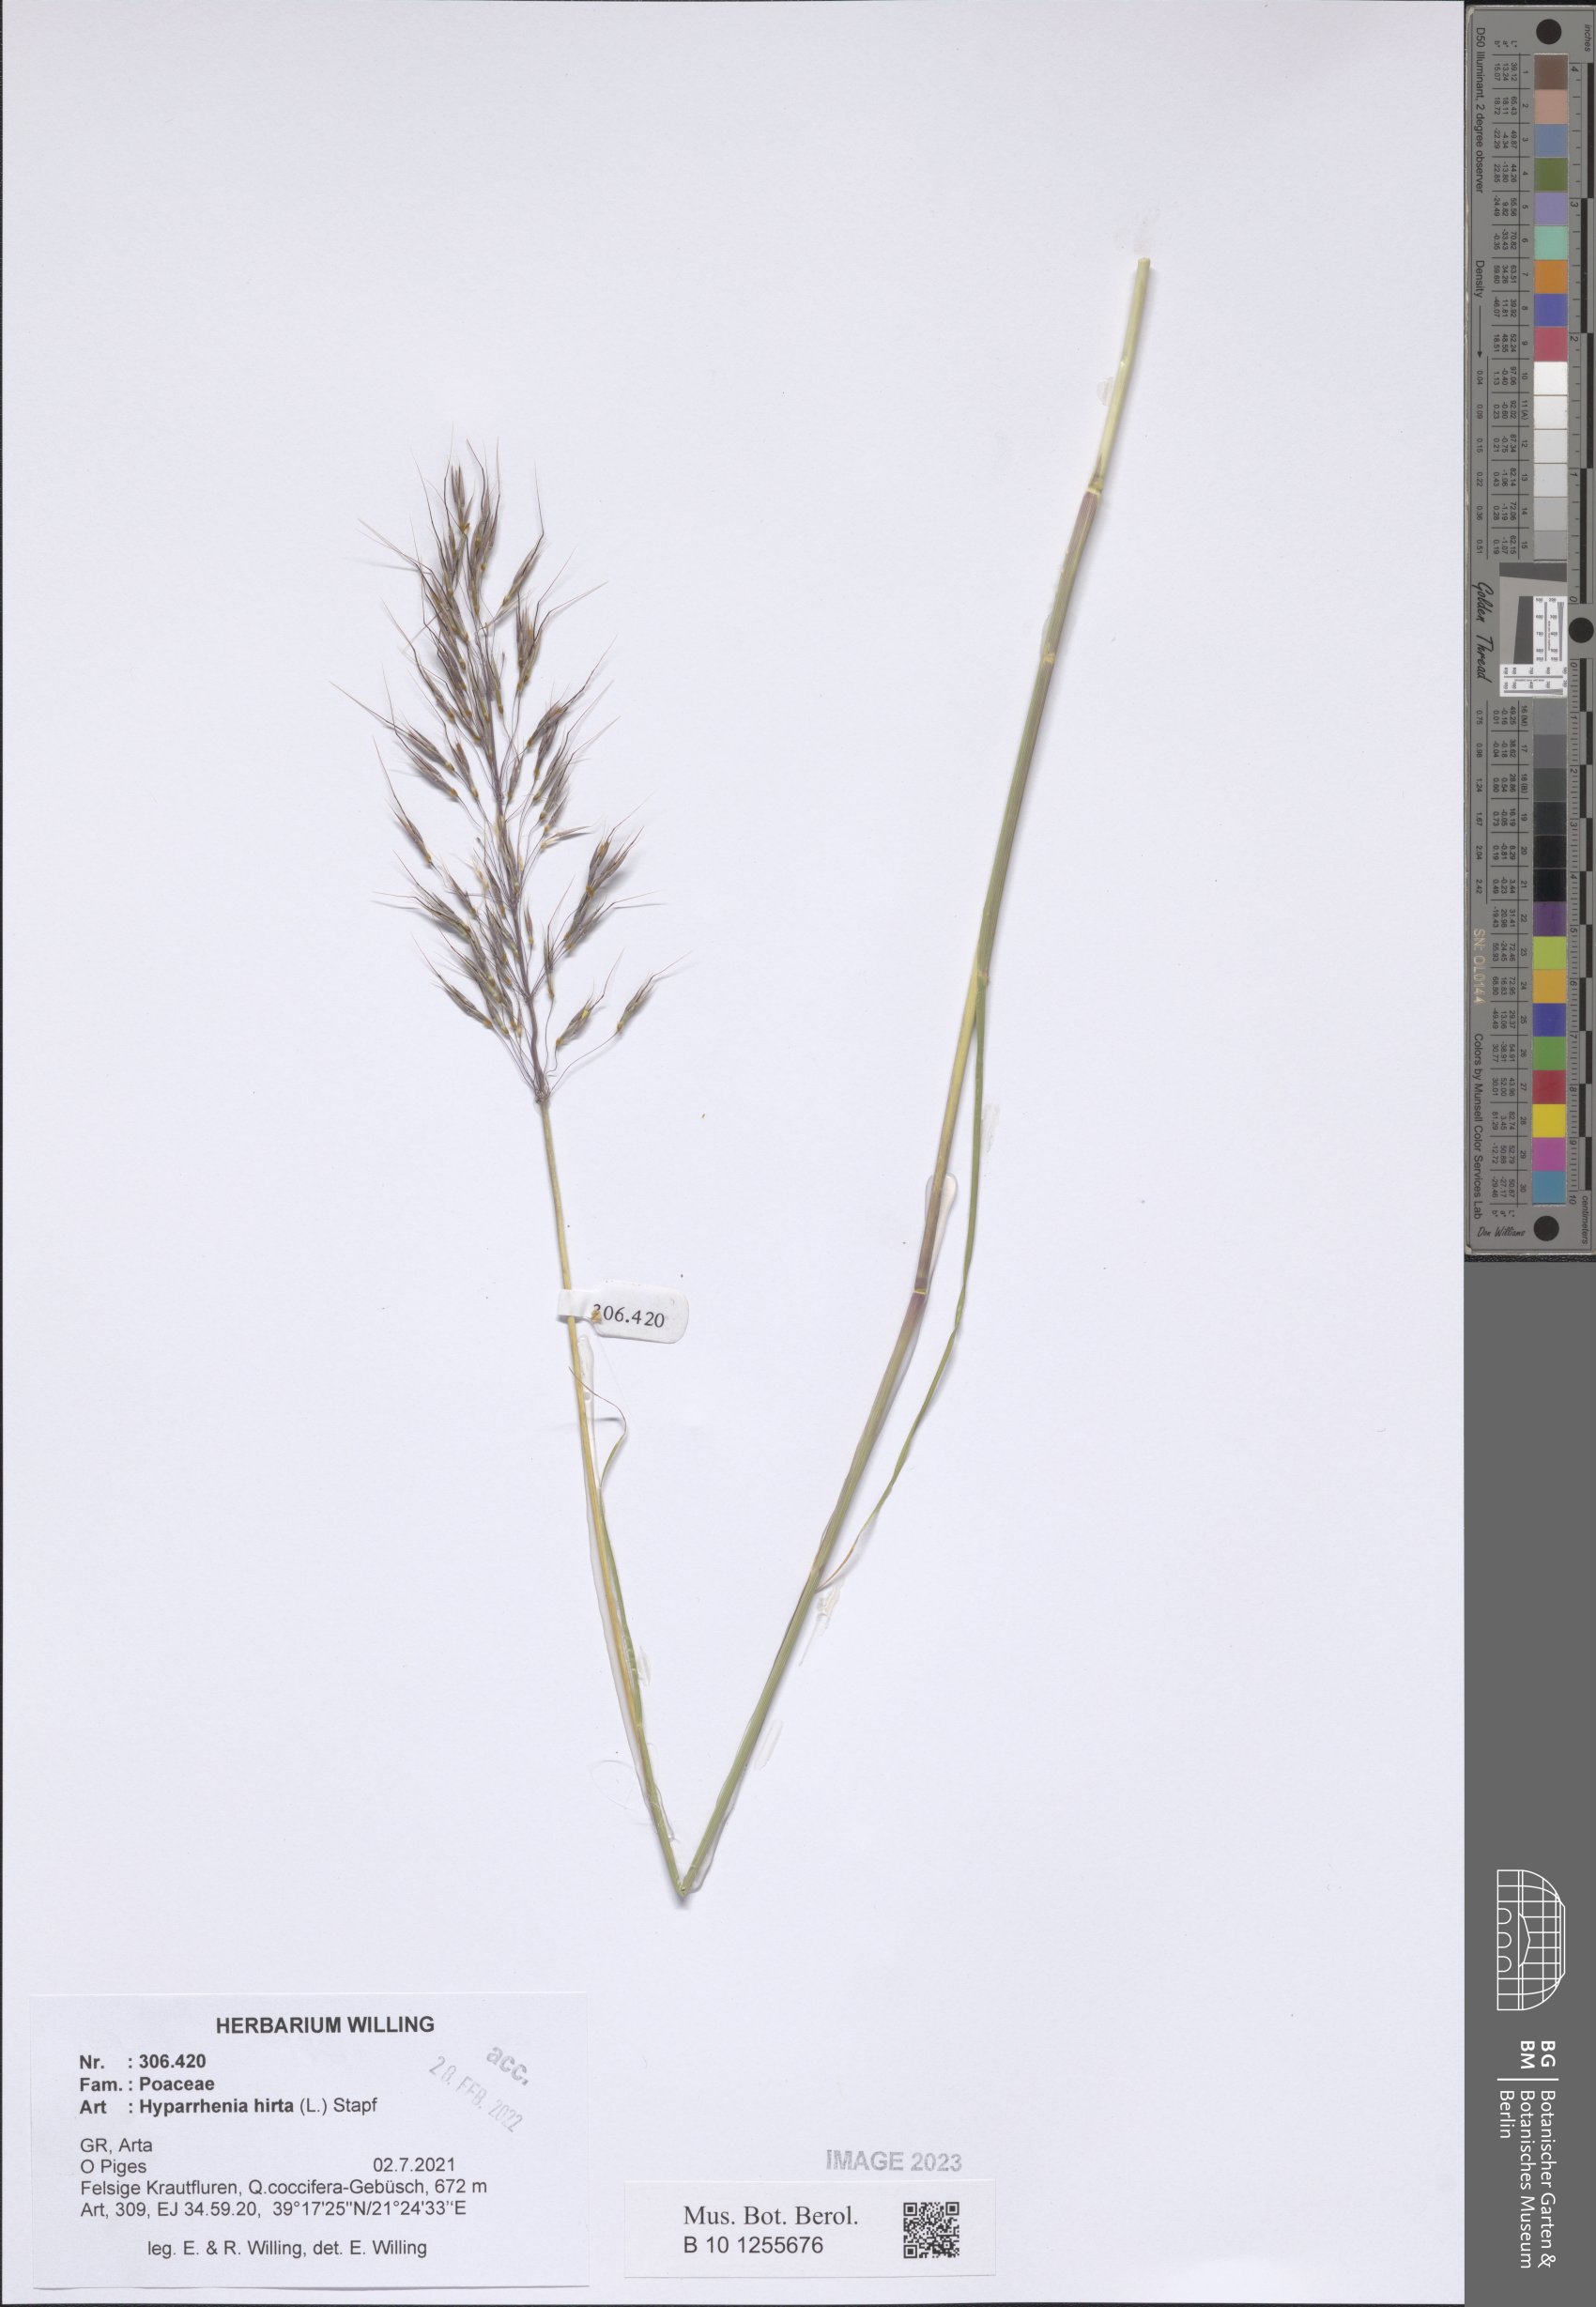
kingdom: Plantae
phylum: Tracheophyta
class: Liliopsida
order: Poales
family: Poaceae
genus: Hyparrhenia
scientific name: Hyparrhenia hirta
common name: Thatching grass
